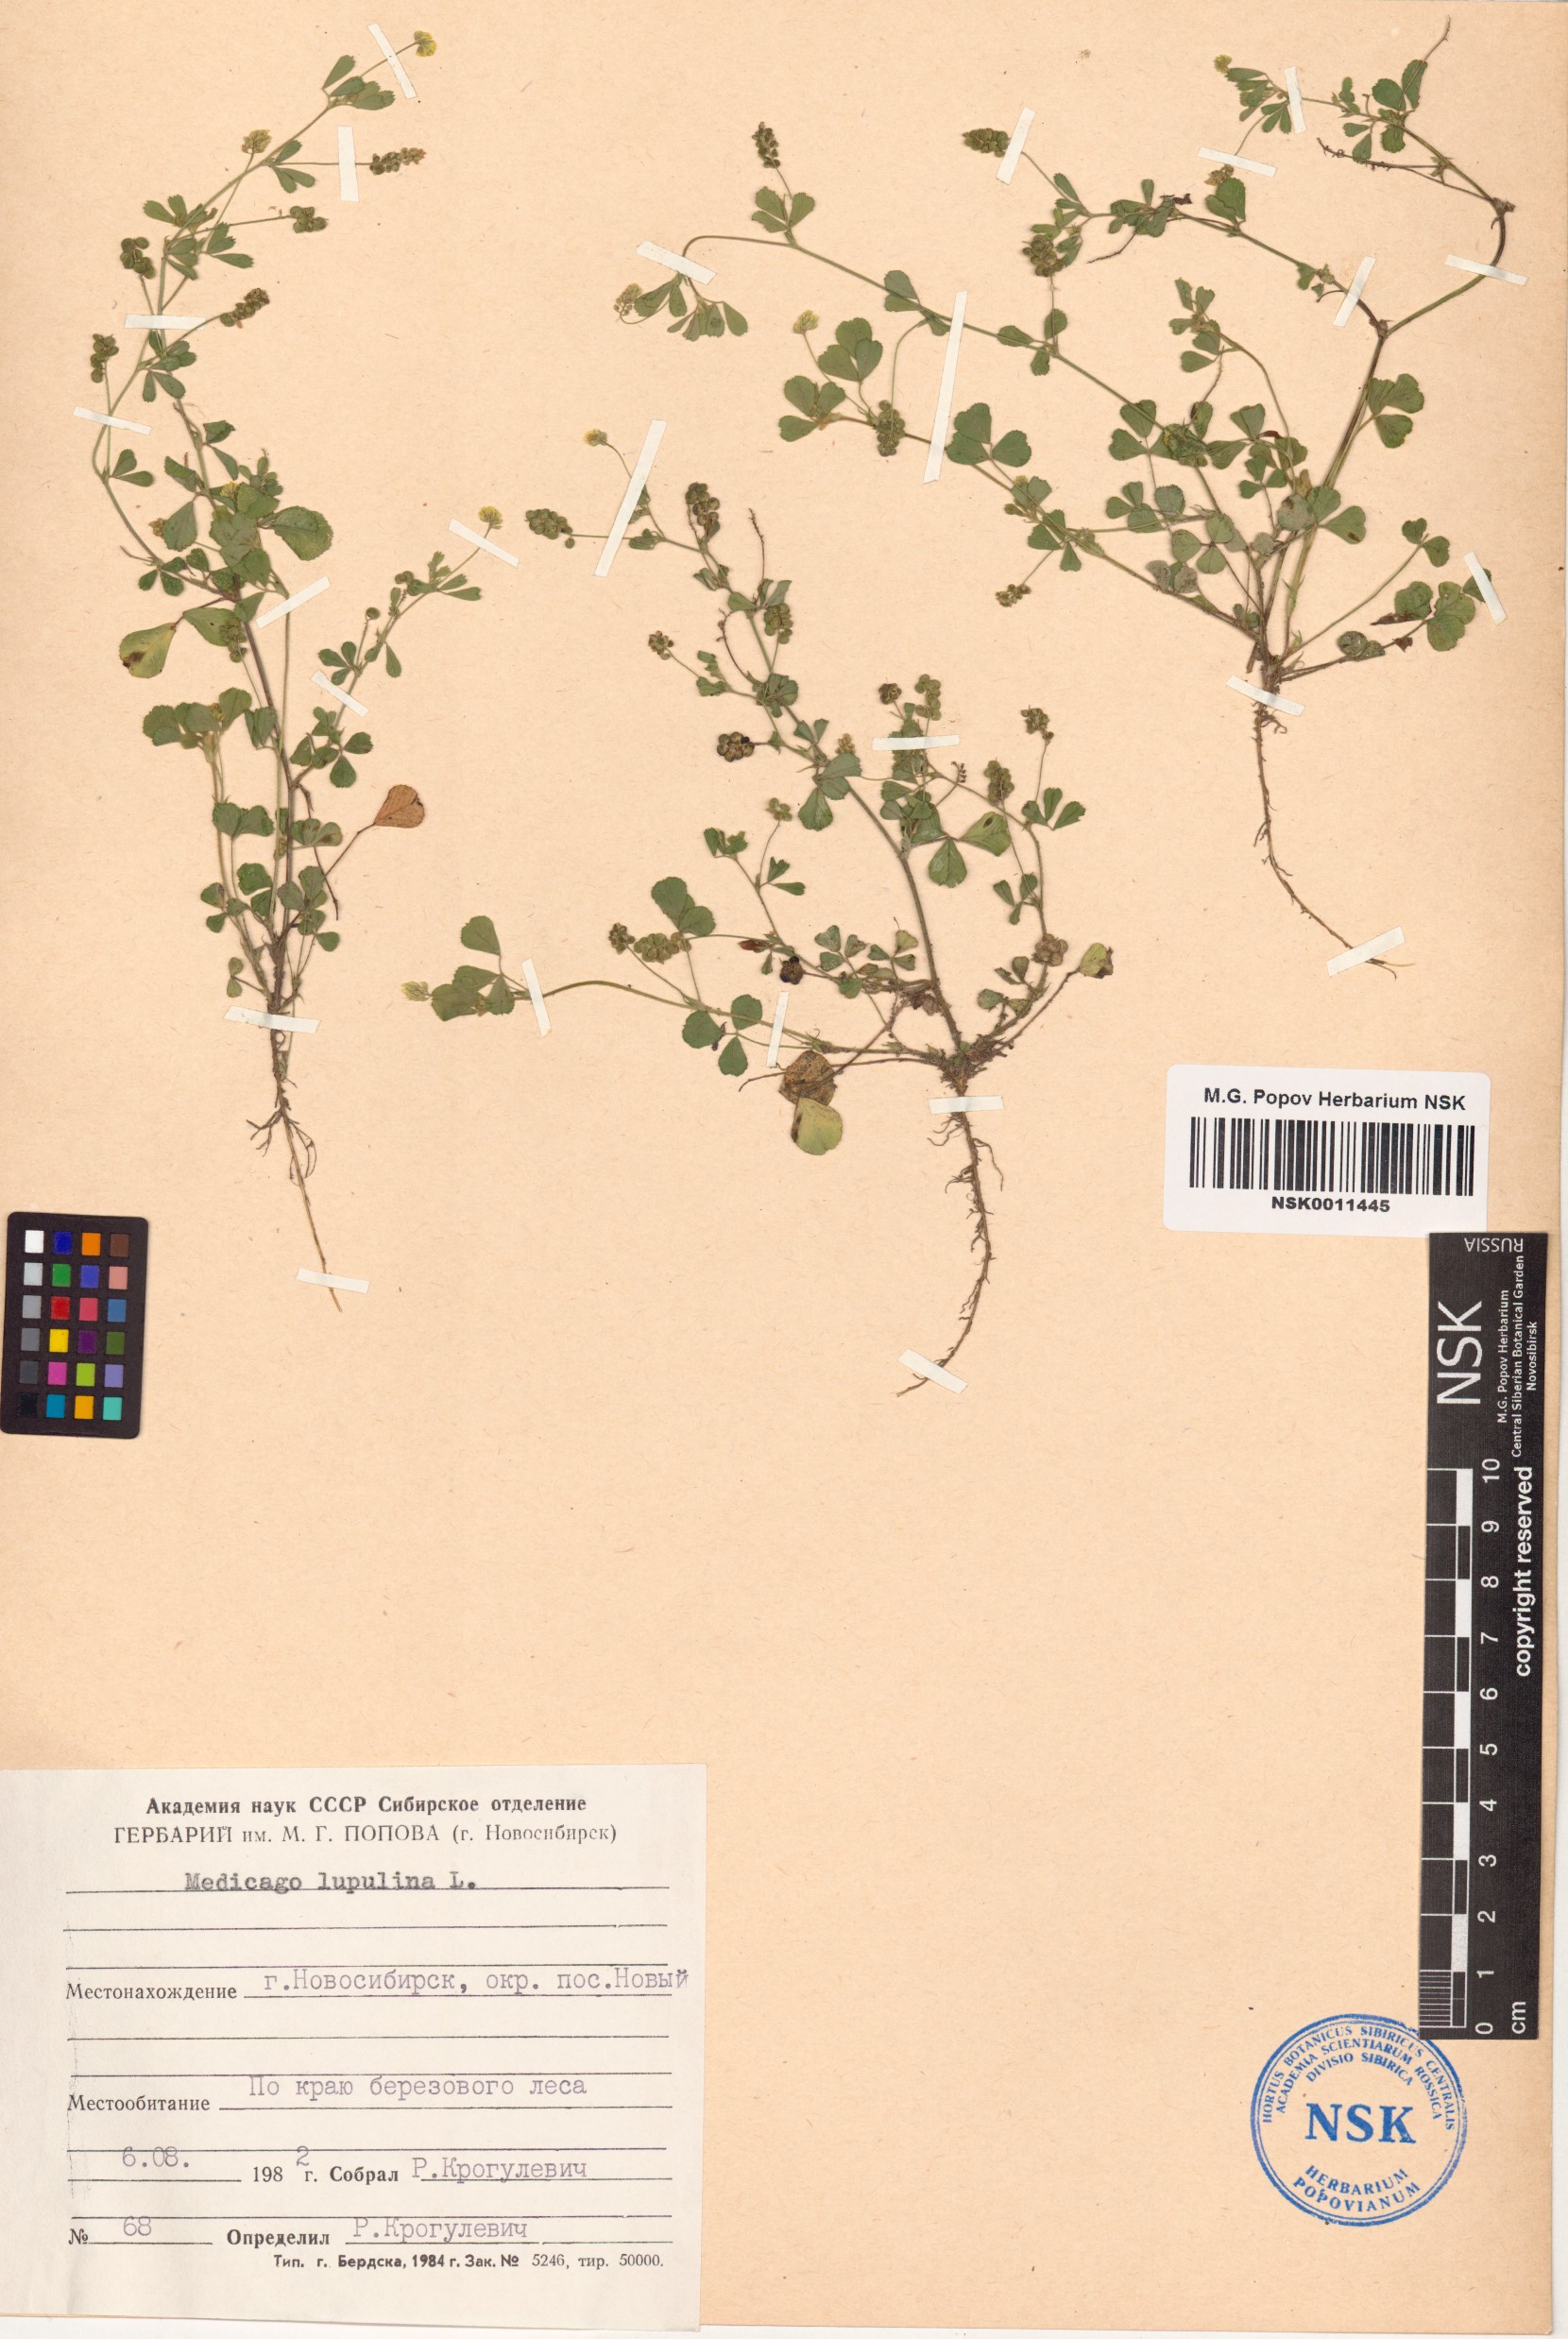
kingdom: Plantae
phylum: Tracheophyta
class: Magnoliopsida
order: Fabales
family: Fabaceae
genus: Medicago
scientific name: Medicago lupulina
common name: Black medick
